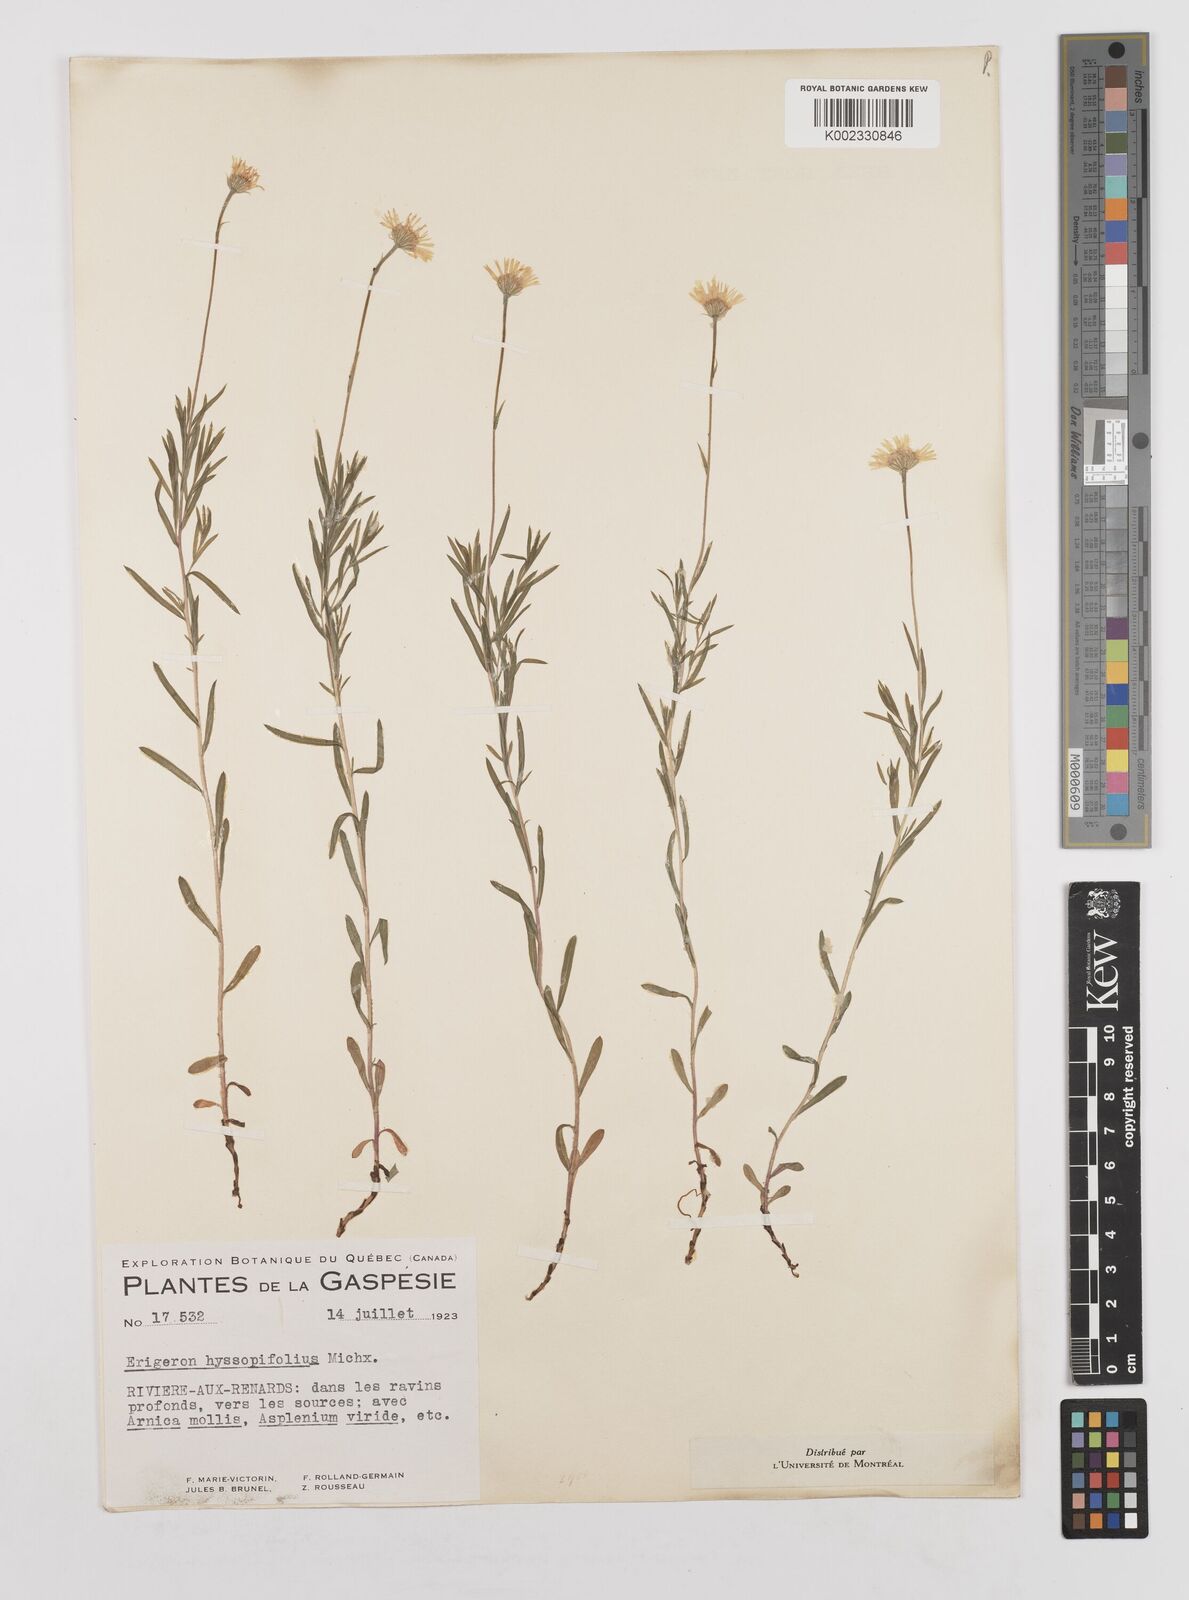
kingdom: Plantae
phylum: Tracheophyta
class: Magnoliopsida
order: Asterales
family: Asteraceae
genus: Erigeron
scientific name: Erigeron hyssopifolius
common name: Daisy fleabane
